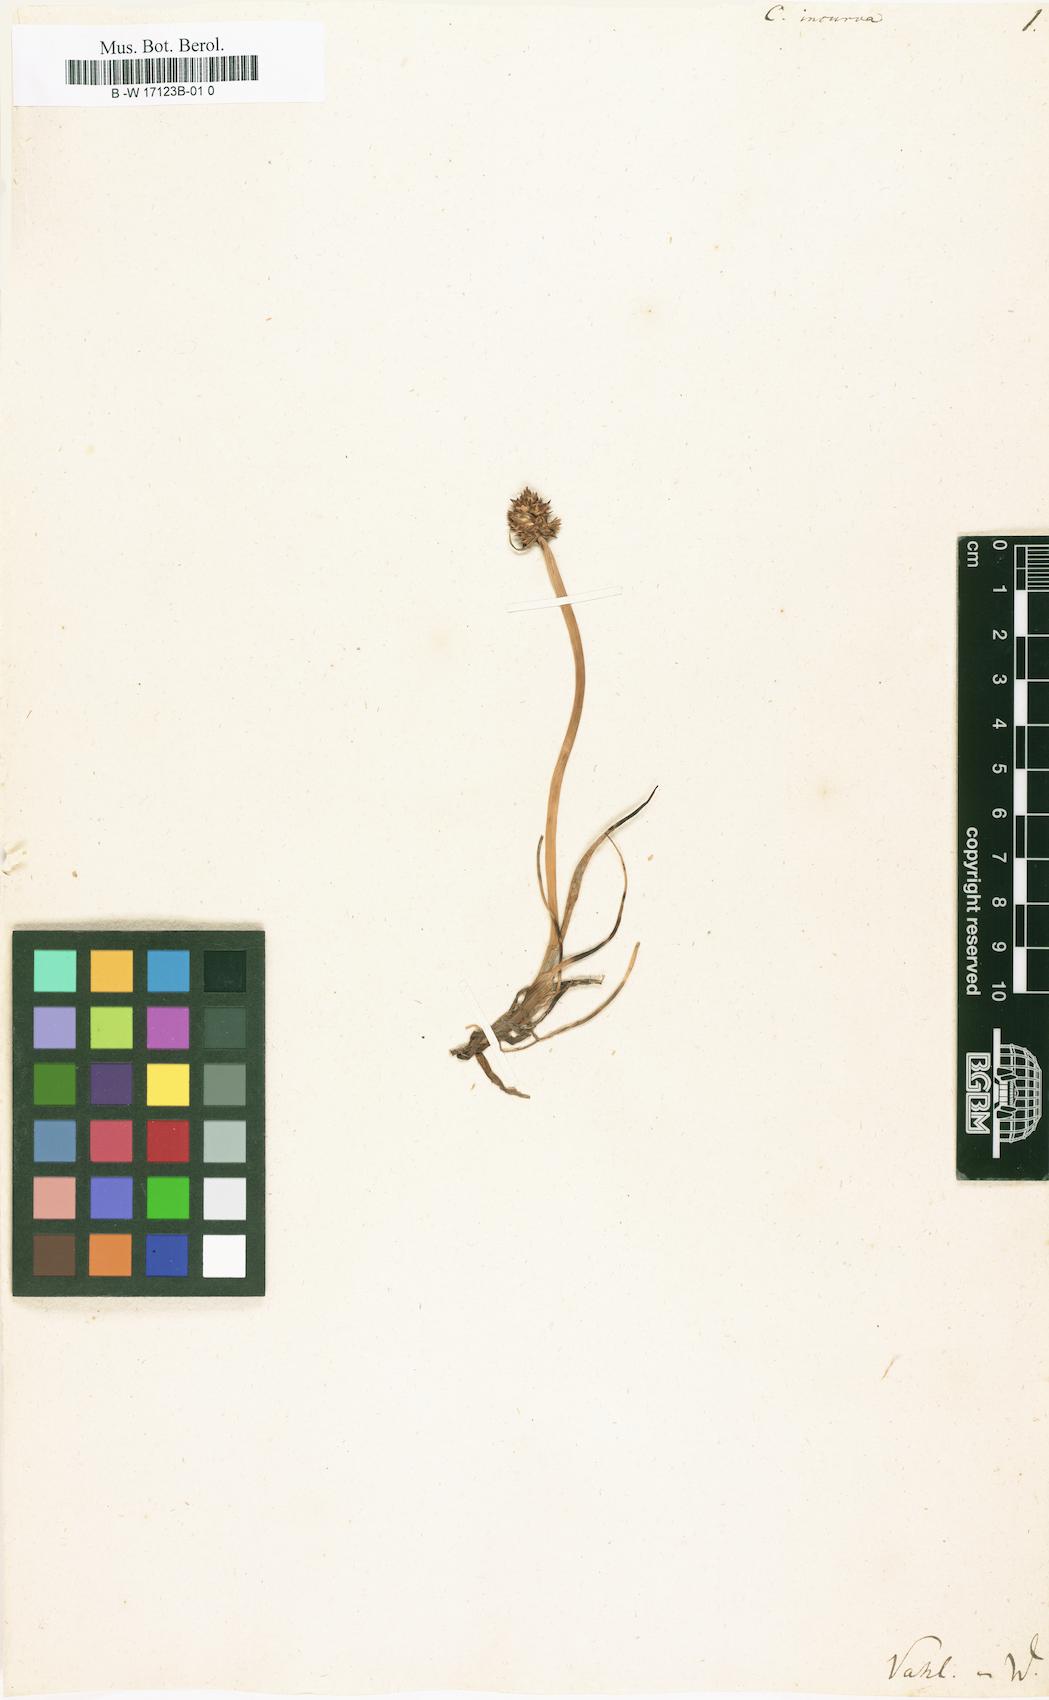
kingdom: Plantae
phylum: Tracheophyta
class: Liliopsida
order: Poales
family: Cyperaceae
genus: Carex
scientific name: Carex
